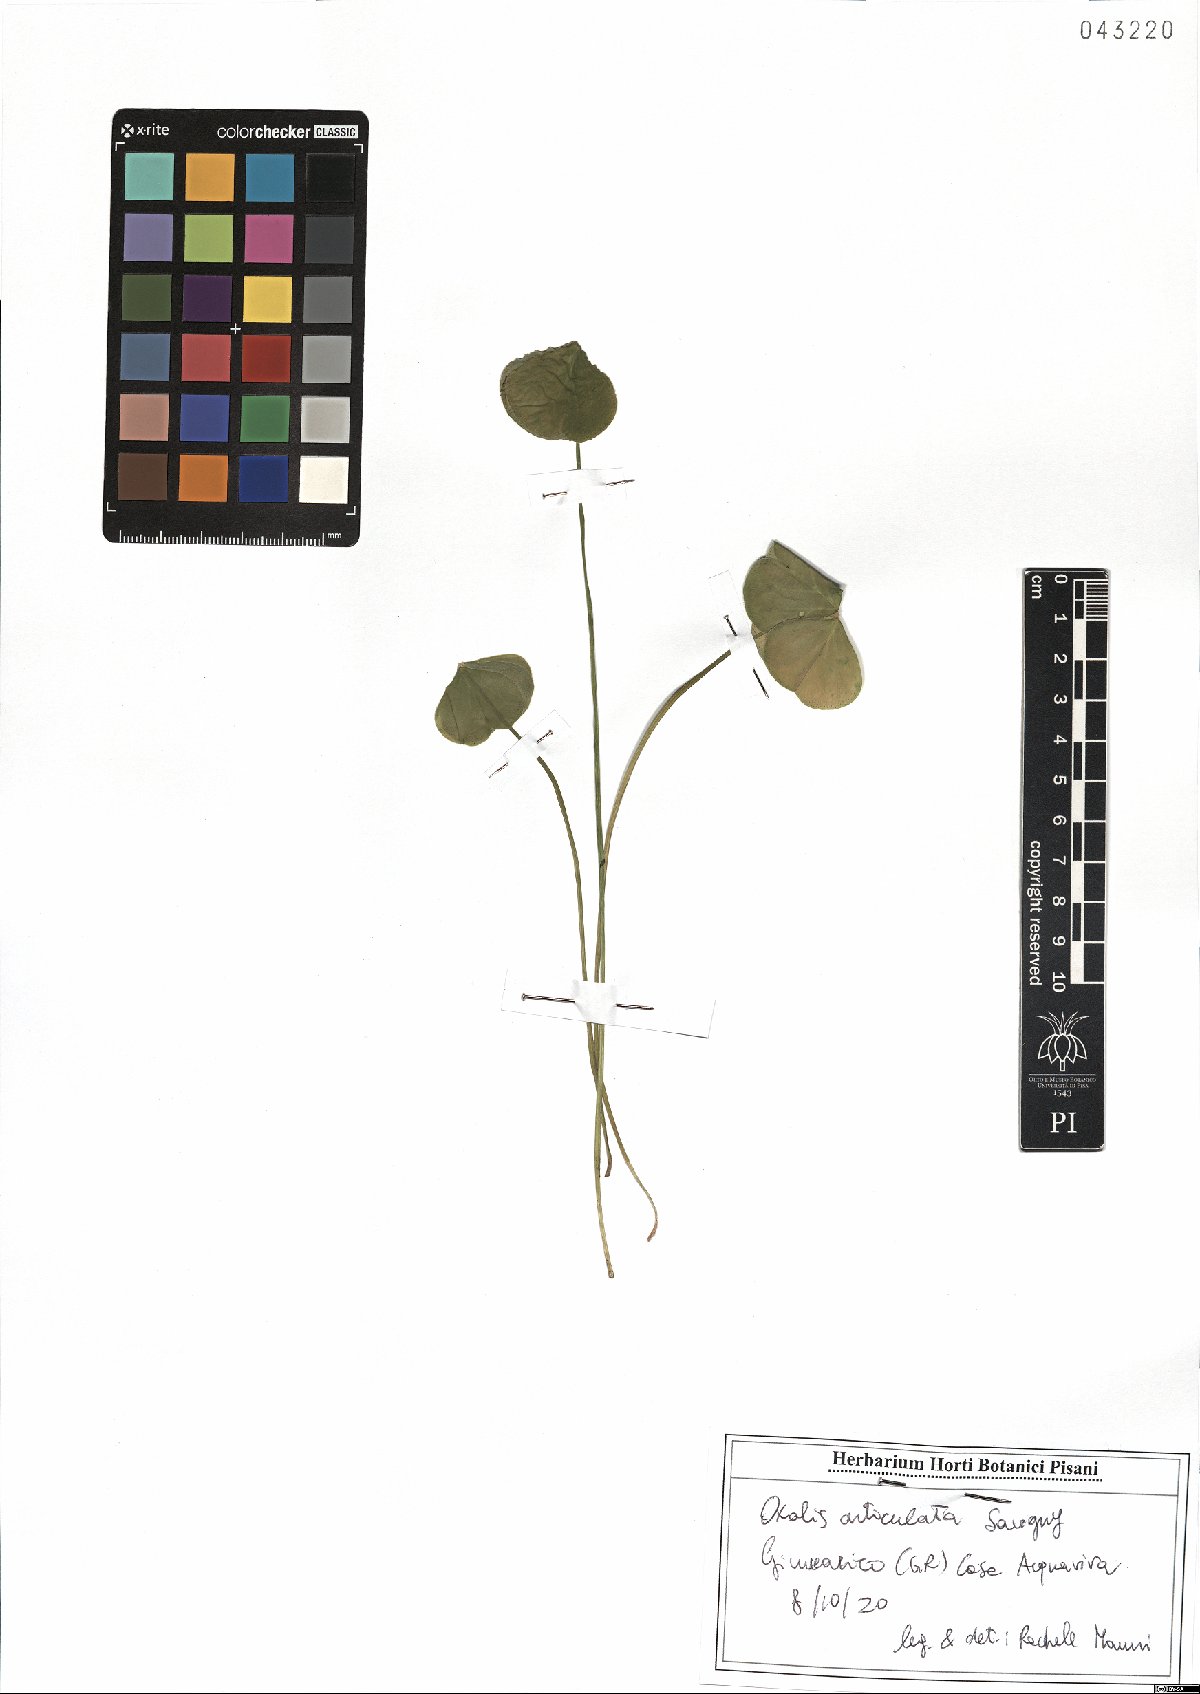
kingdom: Plantae
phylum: Tracheophyta
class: Magnoliopsida
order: Oxalidales
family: Oxalidaceae
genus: Oxalis
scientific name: Oxalis articulata
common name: Pink-sorrel
